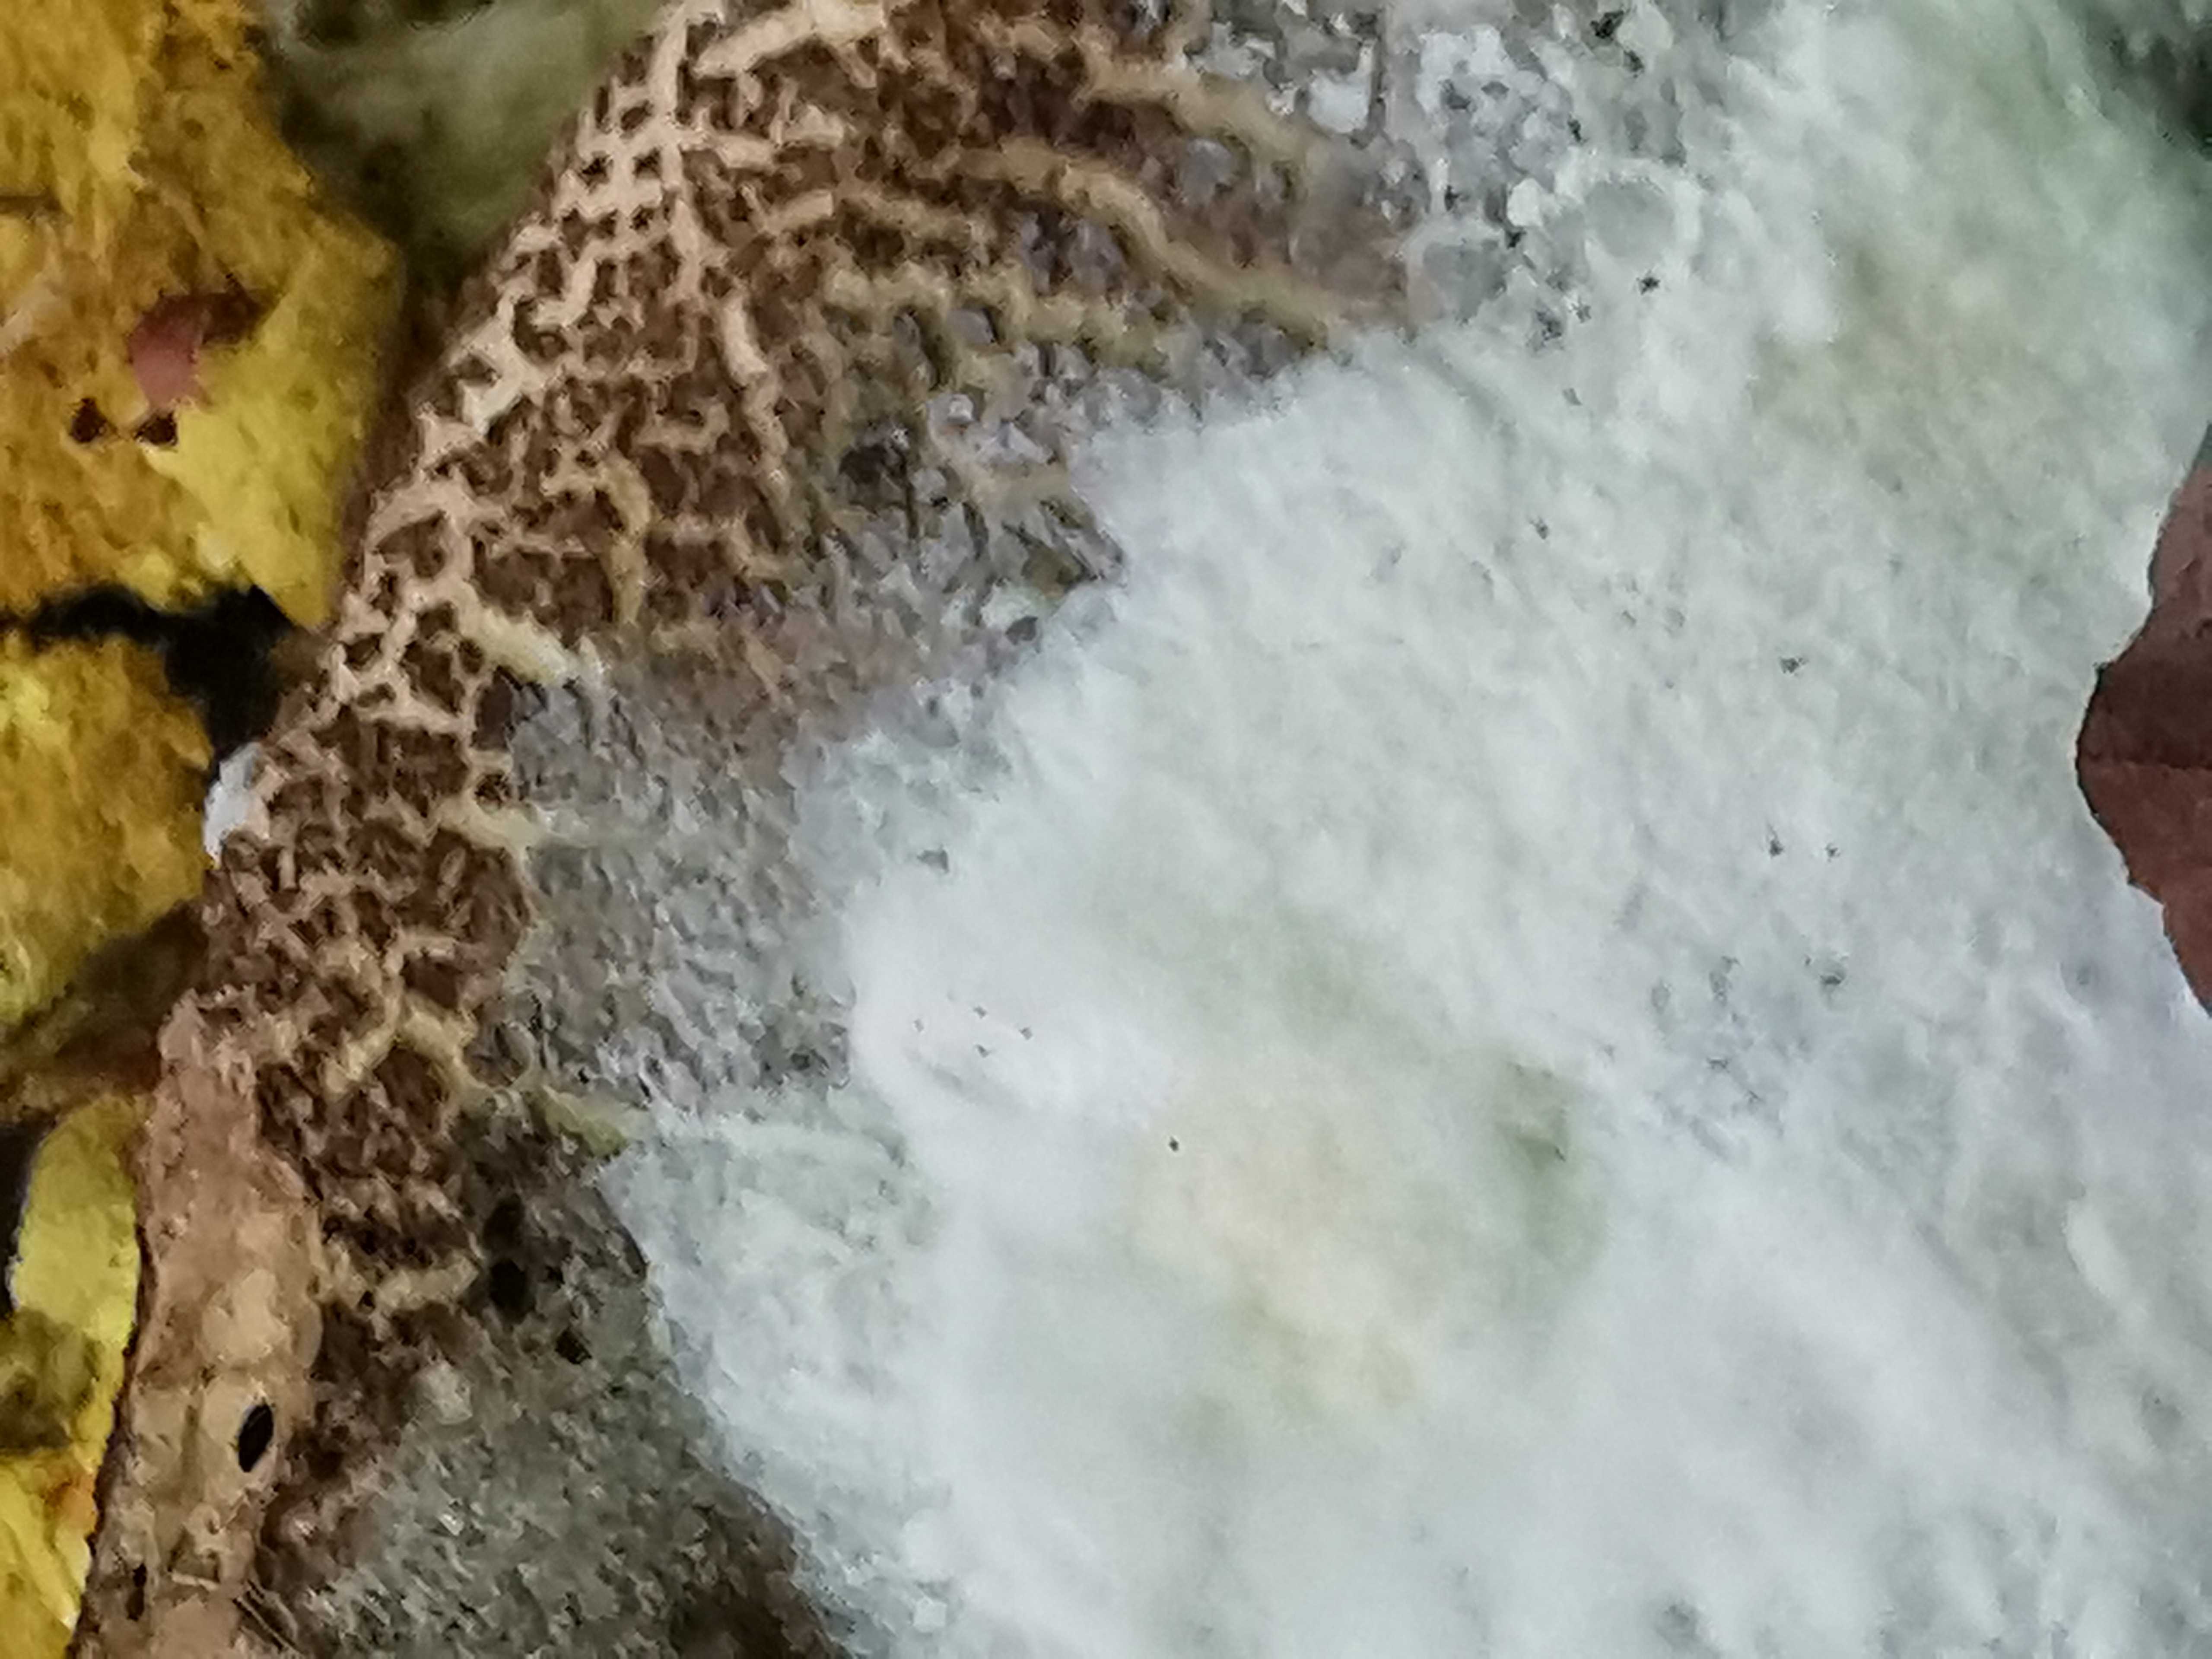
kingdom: Fungi
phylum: Ascomycota
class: Sordariomycetes
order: Hypocreales
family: Hypocreaceae
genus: Hypomyces
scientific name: Hypomyces microspermus
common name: dværgrørhat-snylteskorpe
